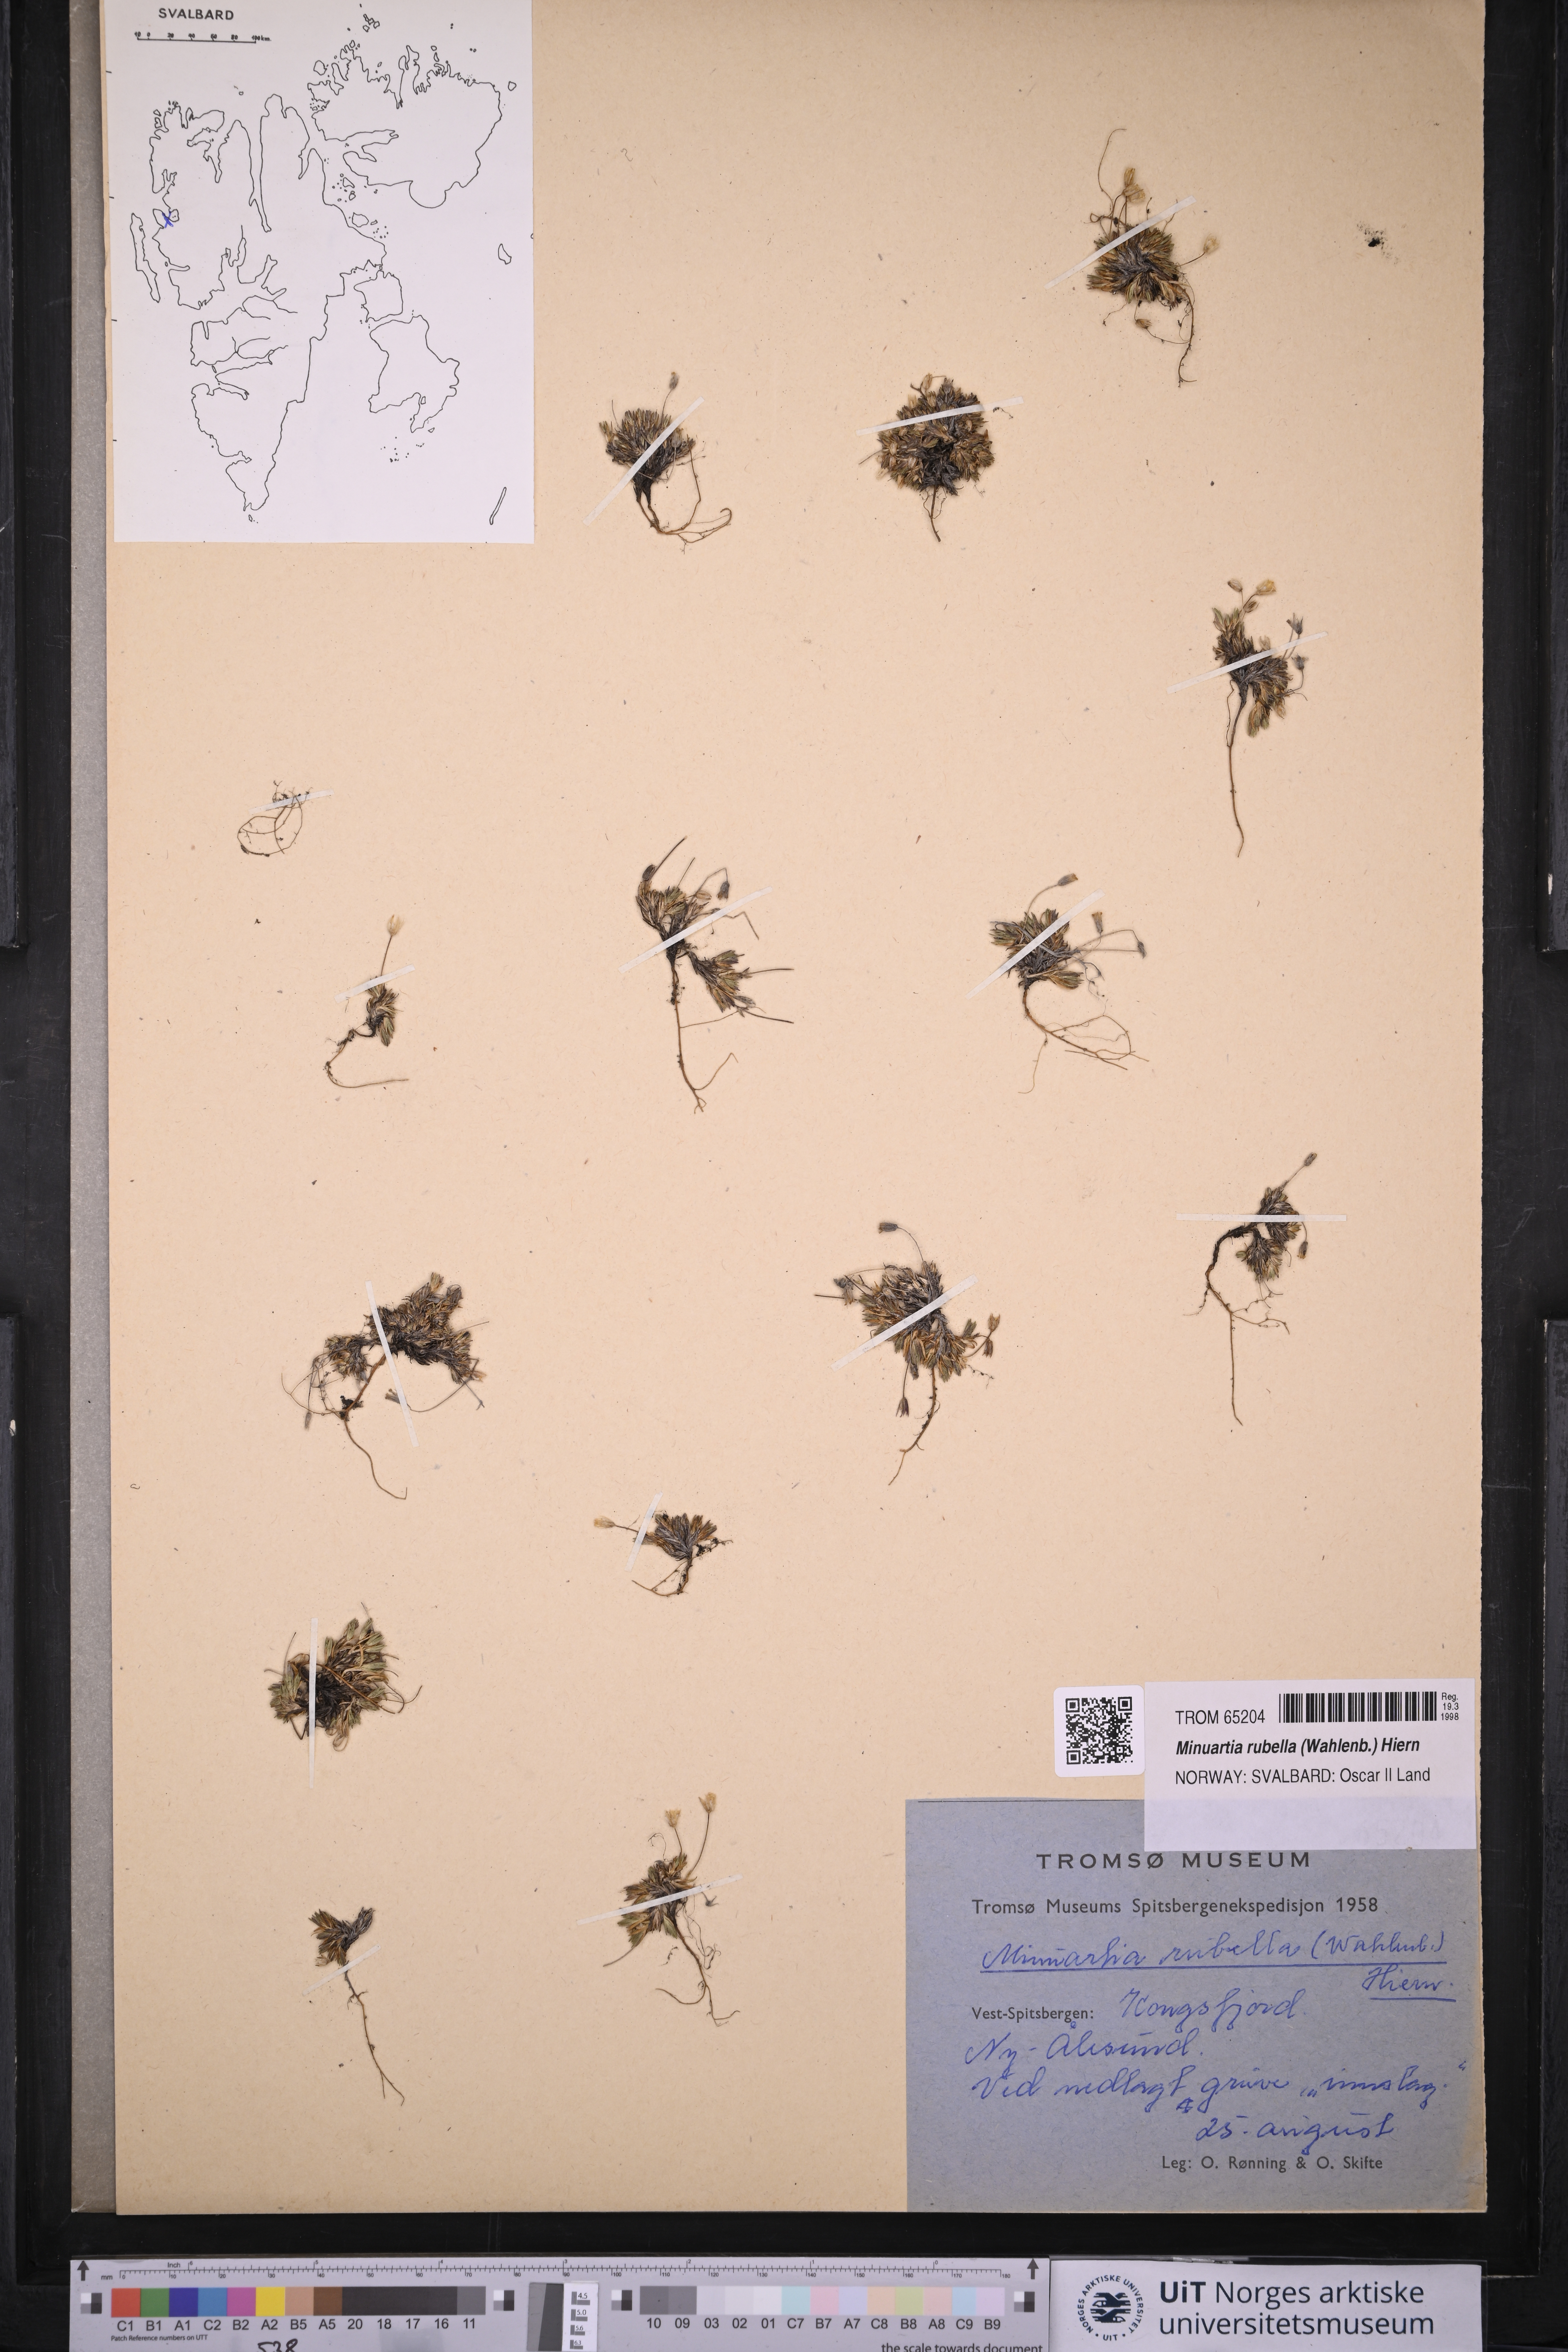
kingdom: Plantae
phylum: Tracheophyta
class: Magnoliopsida
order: Caryophyllales
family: Caryophyllaceae
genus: Sabulina
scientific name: Sabulina rubella
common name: Beautiful sandwort
